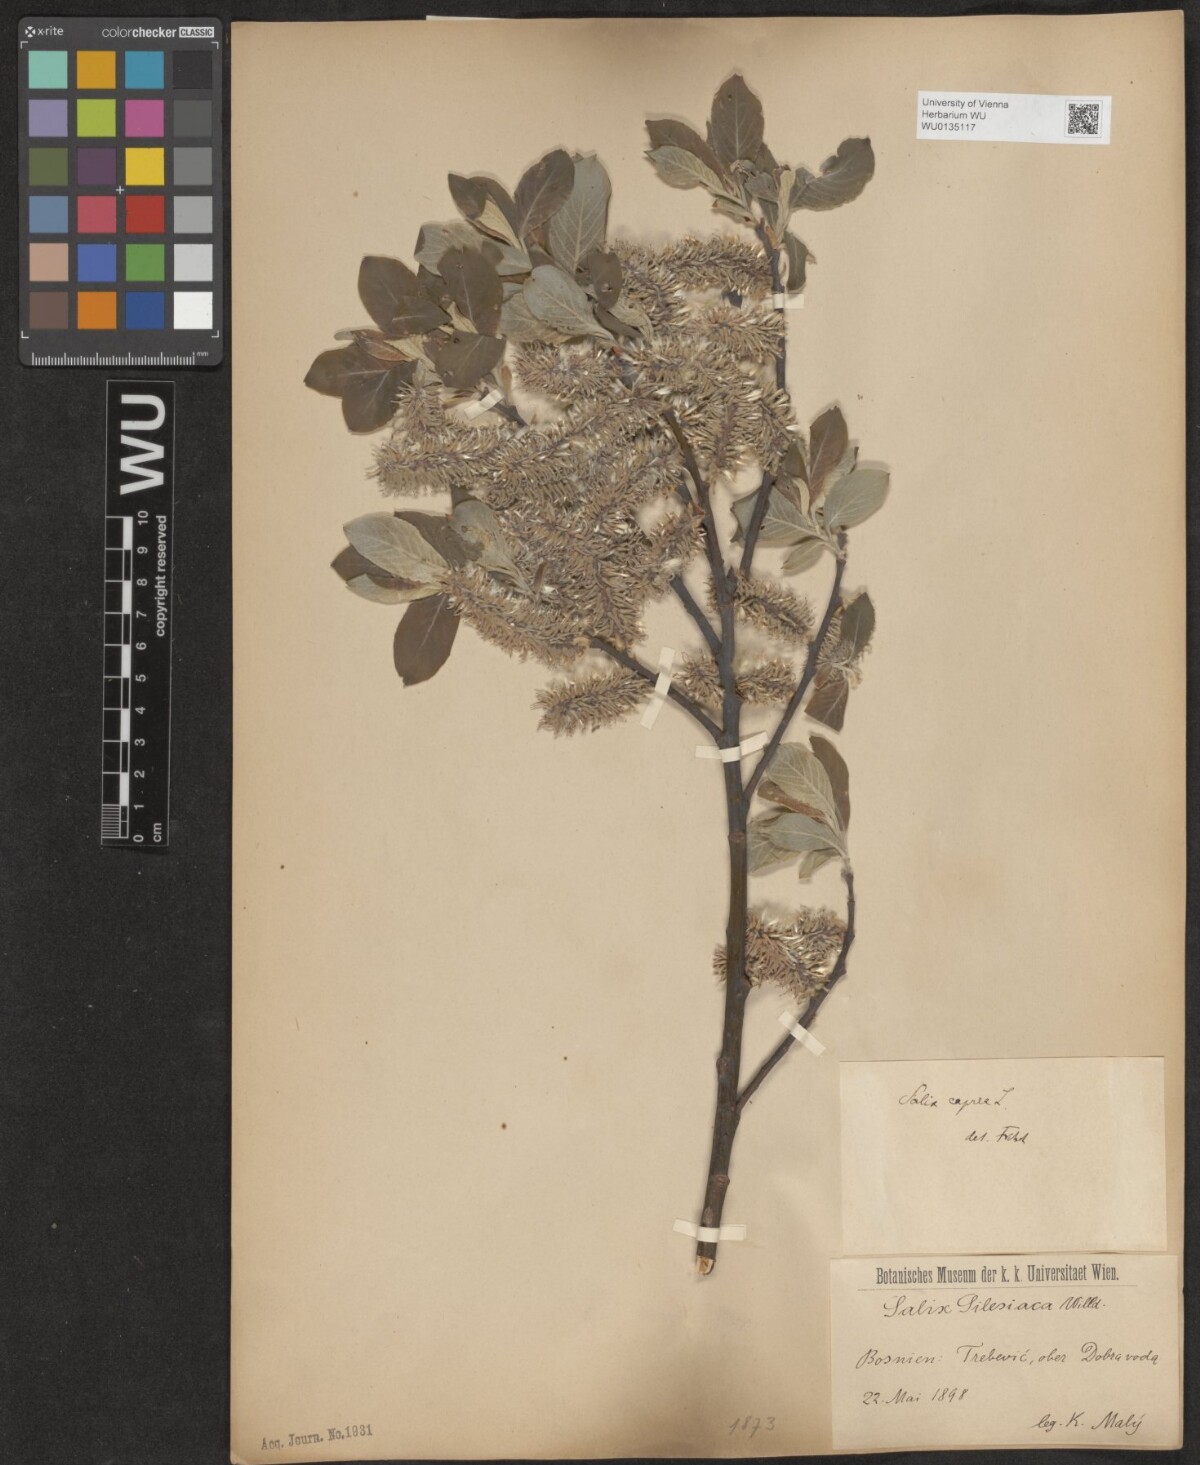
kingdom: Plantae
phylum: Tracheophyta
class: Magnoliopsida
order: Malpighiales
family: Salicaceae
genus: Salix
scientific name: Salix caprea
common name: Goat willow
